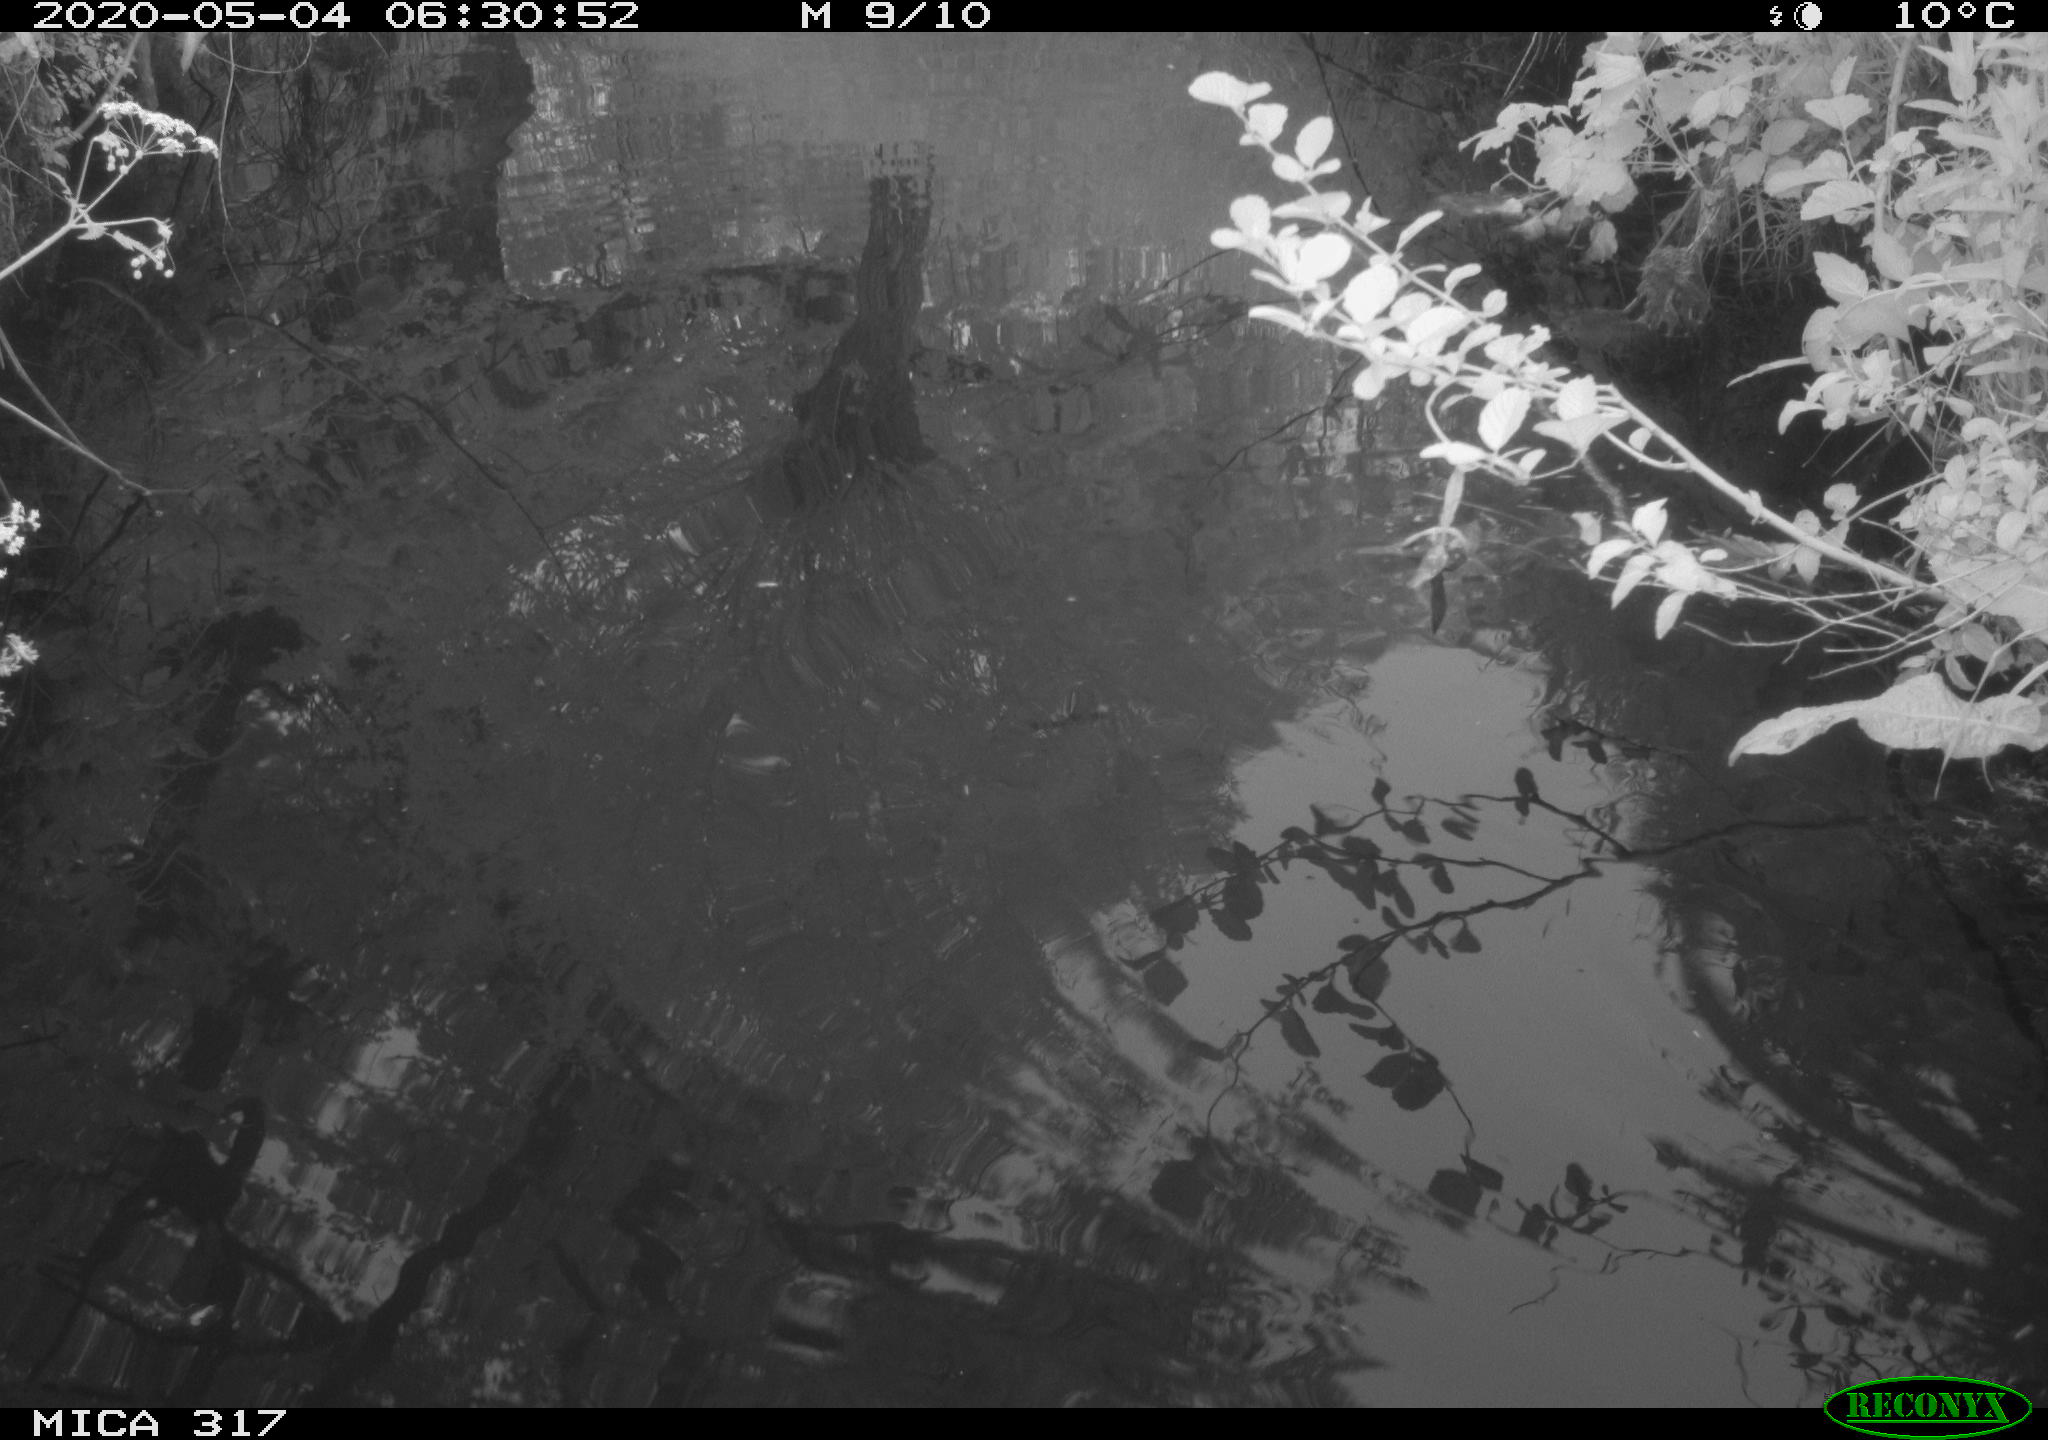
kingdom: Animalia
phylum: Chordata
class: Aves
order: Gruiformes
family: Rallidae
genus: Gallinula
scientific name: Gallinula chloropus
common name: Common moorhen
